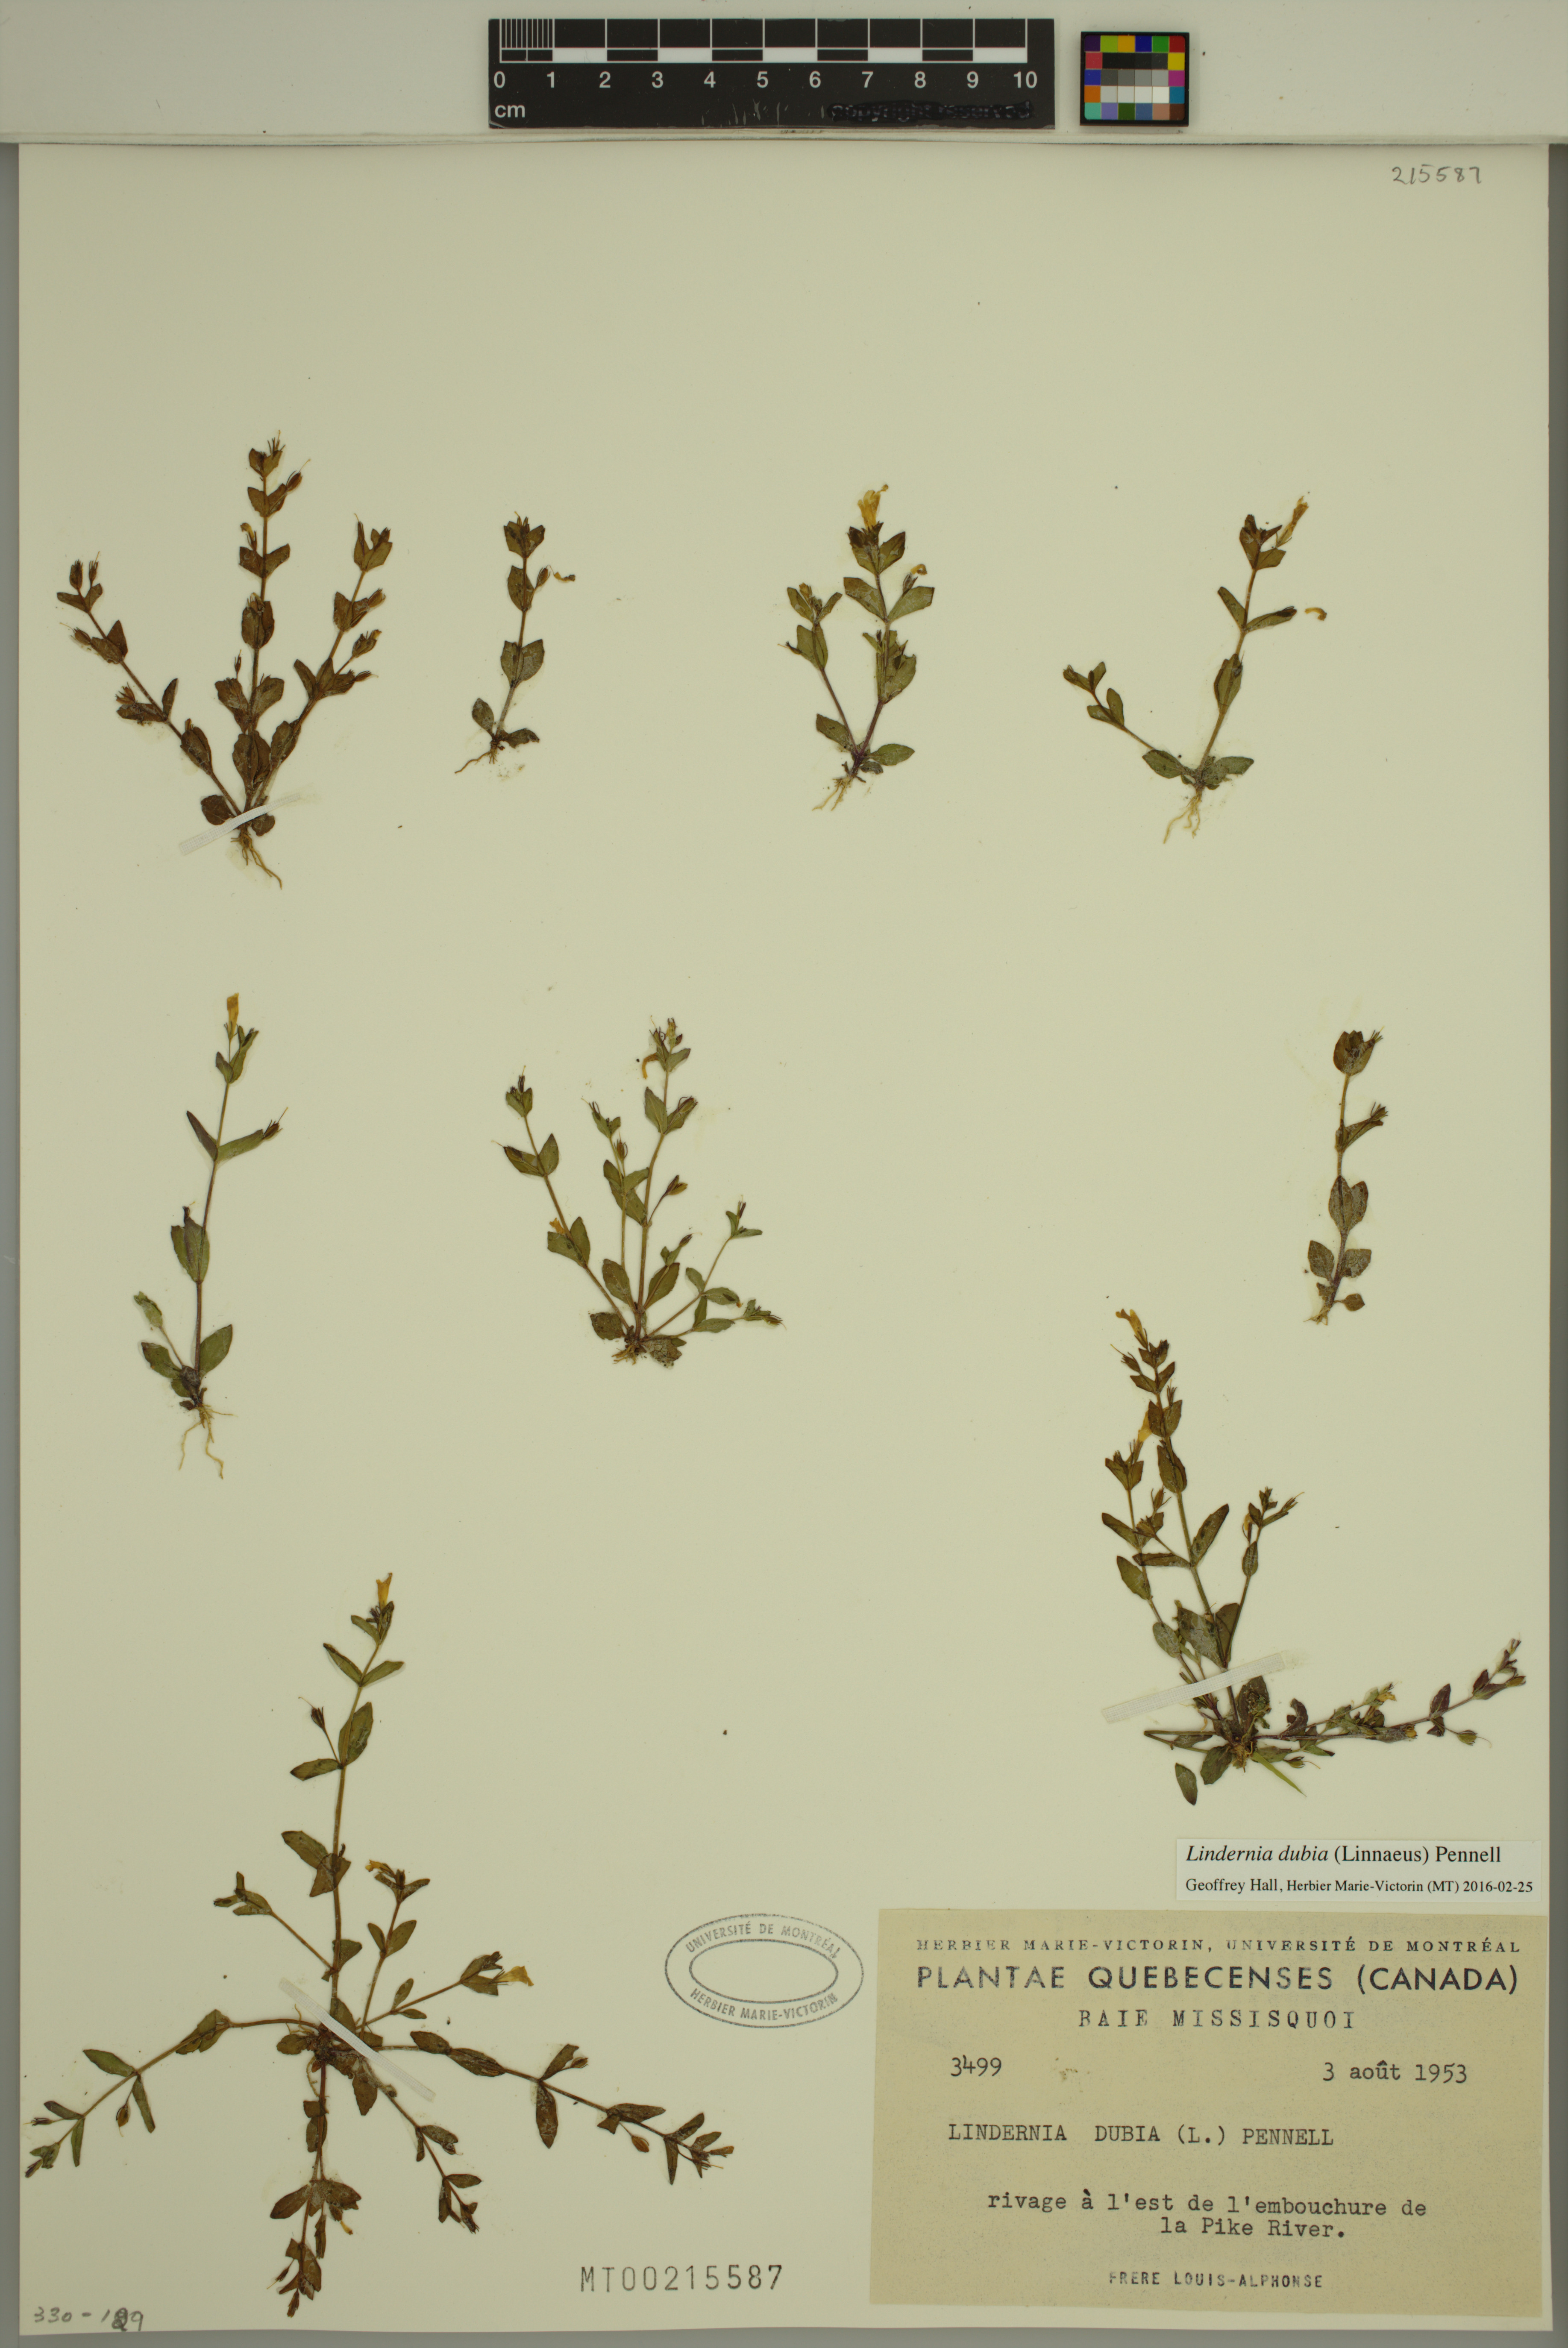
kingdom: Plantae
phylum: Tracheophyta
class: Magnoliopsida
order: Lamiales
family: Linderniaceae
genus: Lindernia
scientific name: Lindernia dubia
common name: Annual false pimpernel
